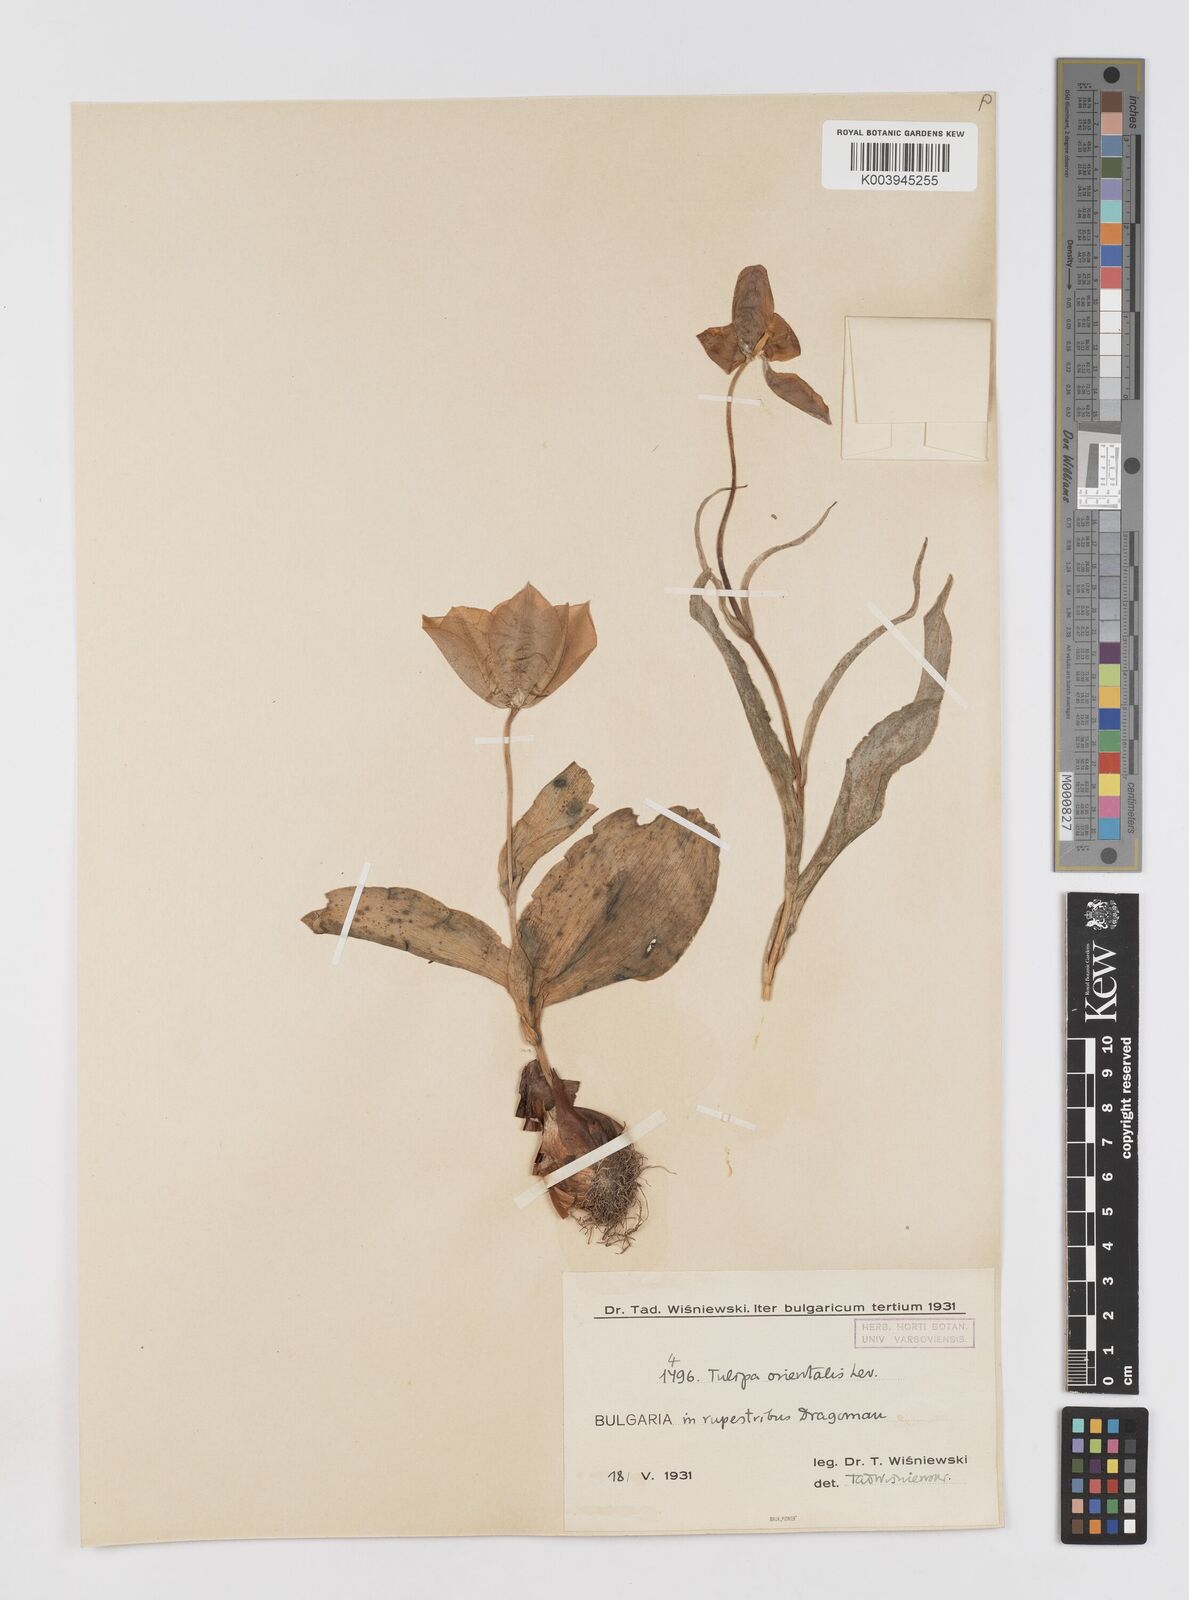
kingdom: Plantae
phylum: Tracheophyta
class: Liliopsida
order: Liliales
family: Liliaceae
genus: Tulipa
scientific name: Tulipa hungarica
